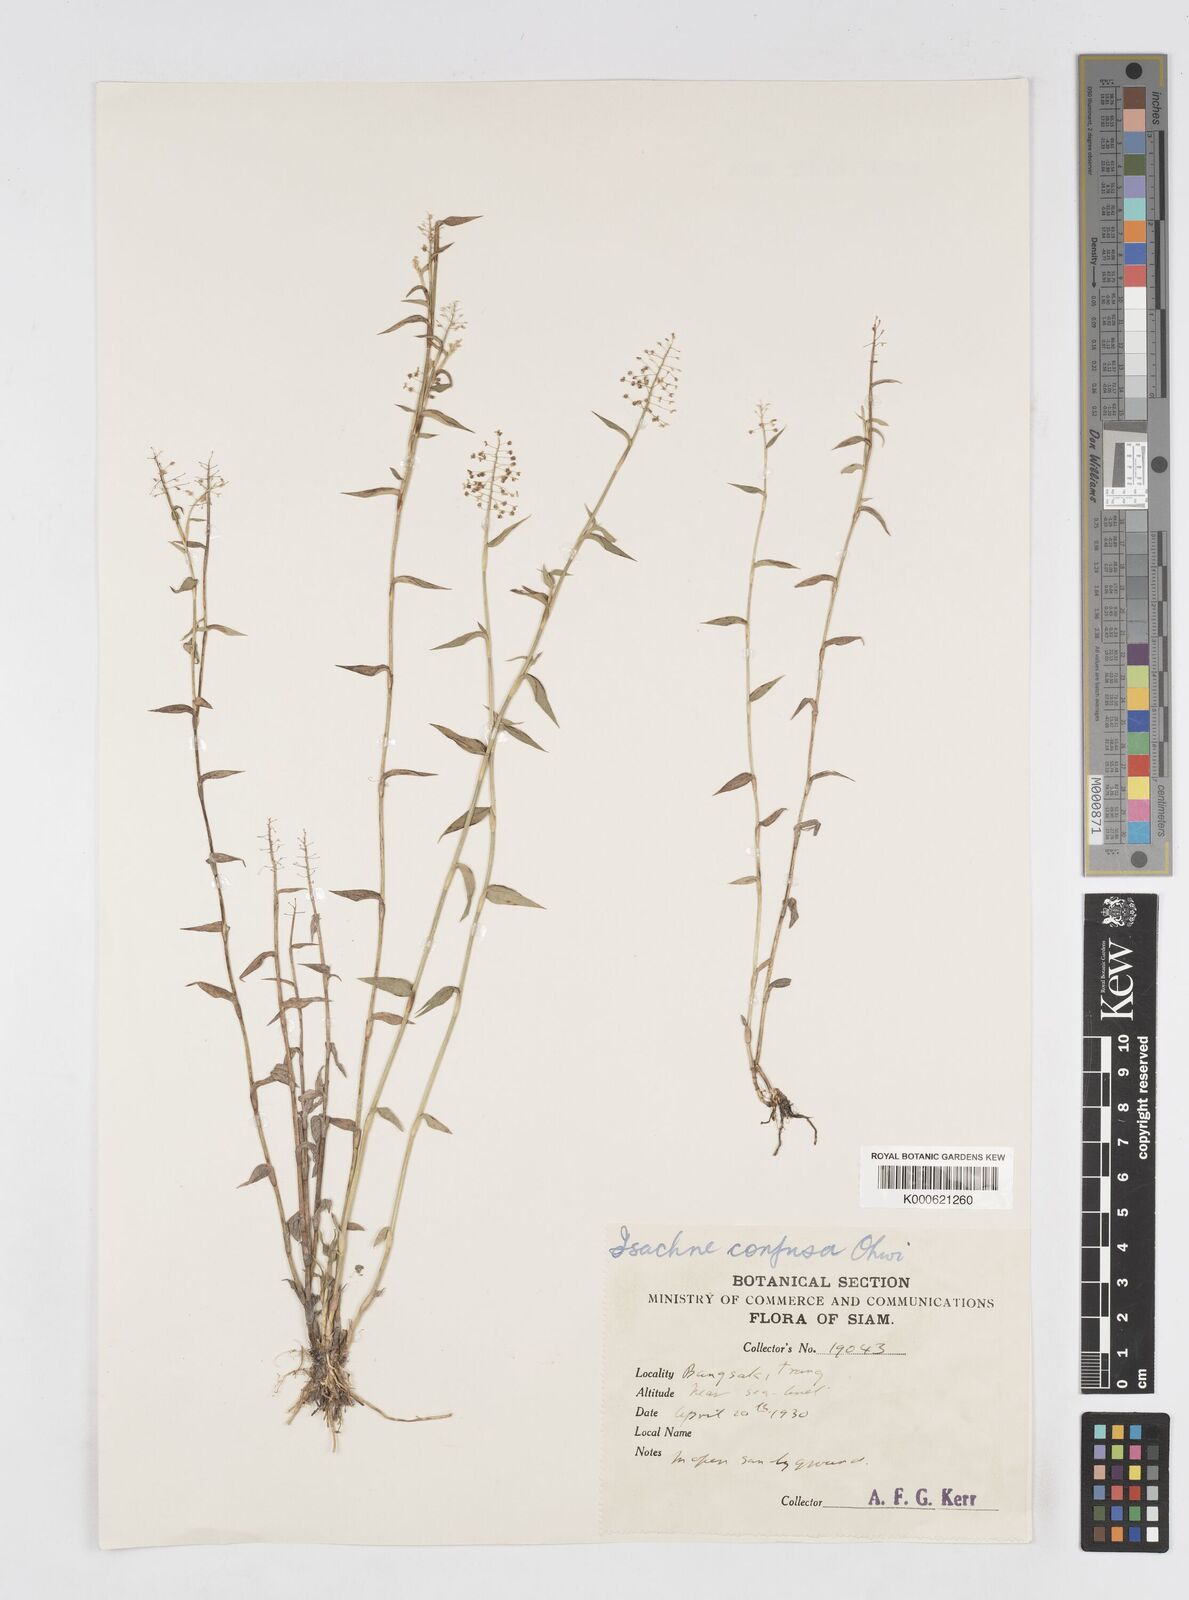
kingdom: Plantae
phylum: Tracheophyta
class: Liliopsida
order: Poales
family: Poaceae
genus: Isachne
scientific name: Isachne confusa
